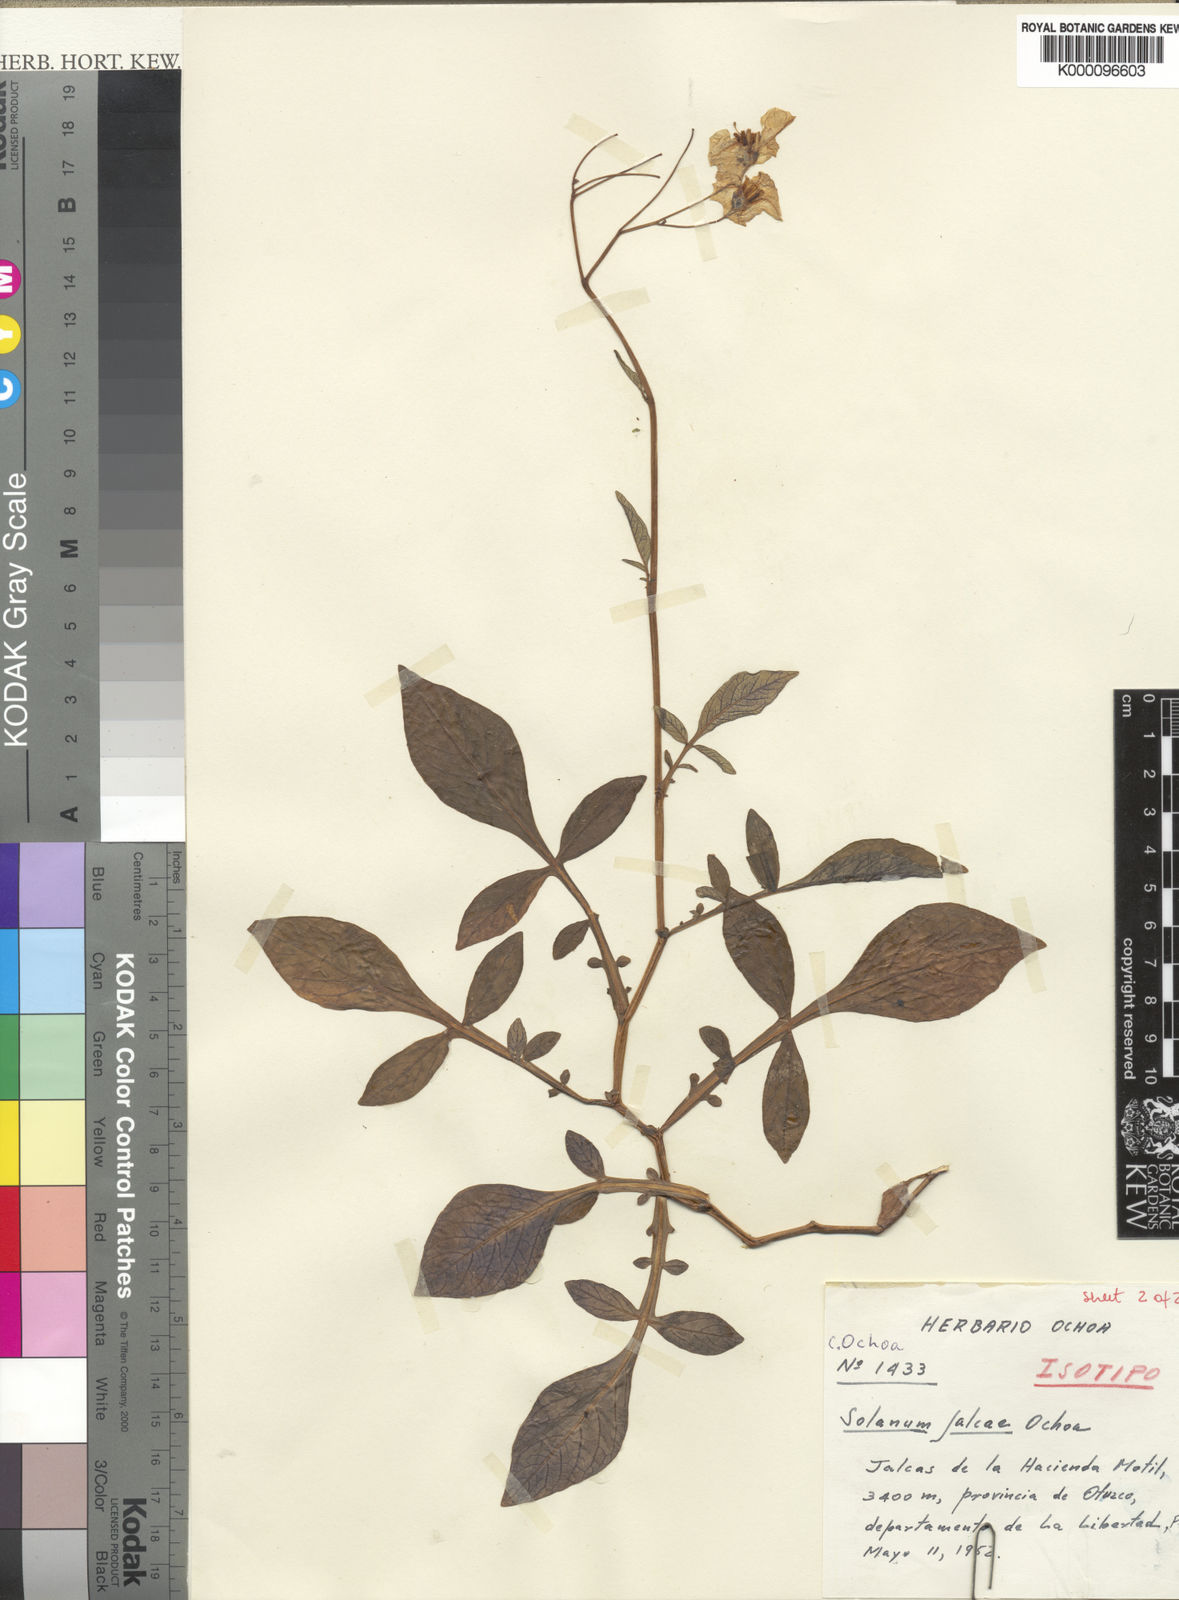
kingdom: Plantae
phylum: Tracheophyta
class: Magnoliopsida
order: Solanales
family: Solanaceae
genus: Solanum
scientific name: Solanum chomatophilum
